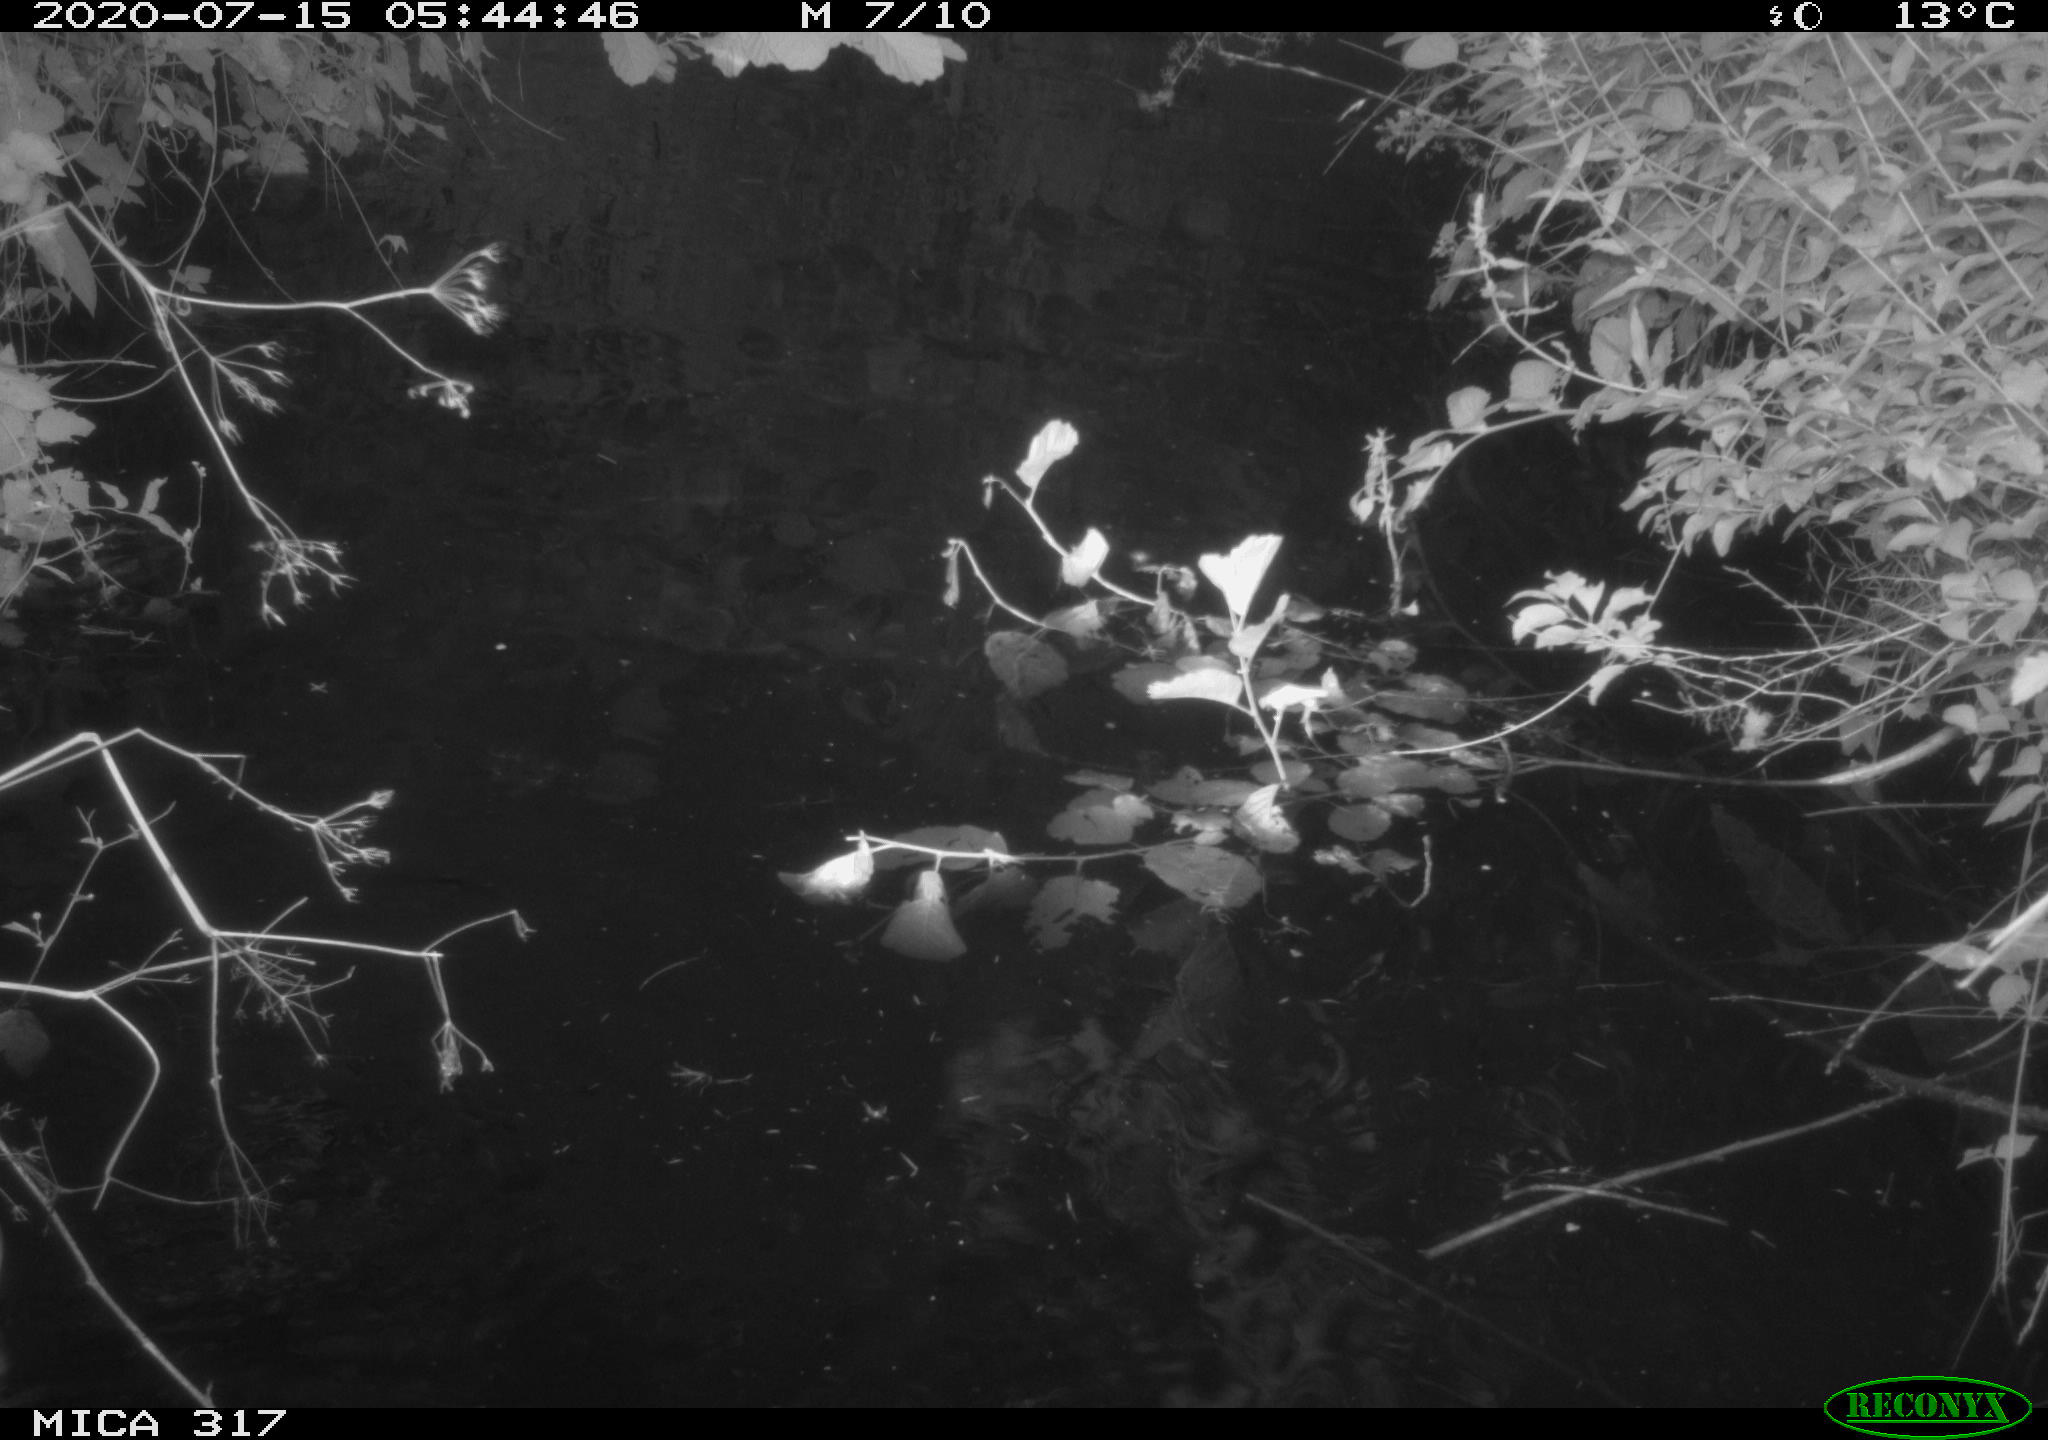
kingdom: Animalia
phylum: Chordata
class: Aves
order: Anseriformes
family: Anatidae
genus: Anas
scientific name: Anas platyrhynchos
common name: Mallard
